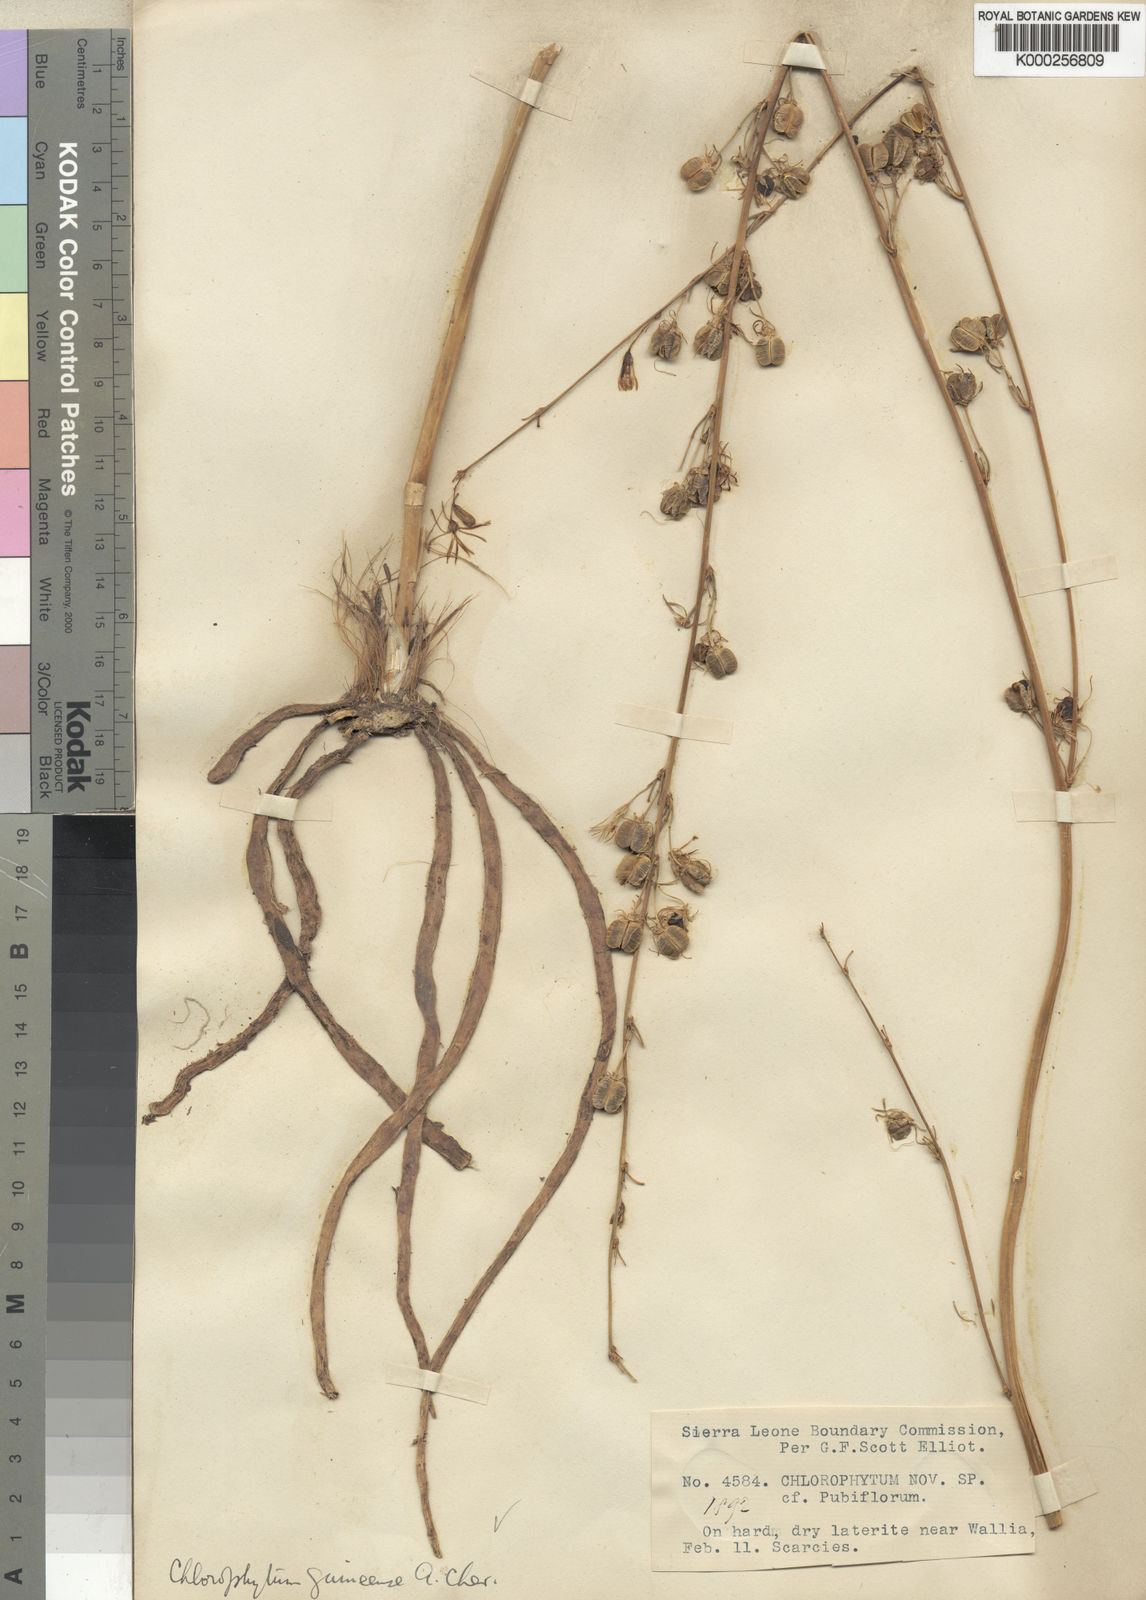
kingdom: Plantae
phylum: Tracheophyta
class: Liliopsida
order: Asparagales
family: Asparagaceae
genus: Chlorophytum
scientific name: Chlorophytum andongense
